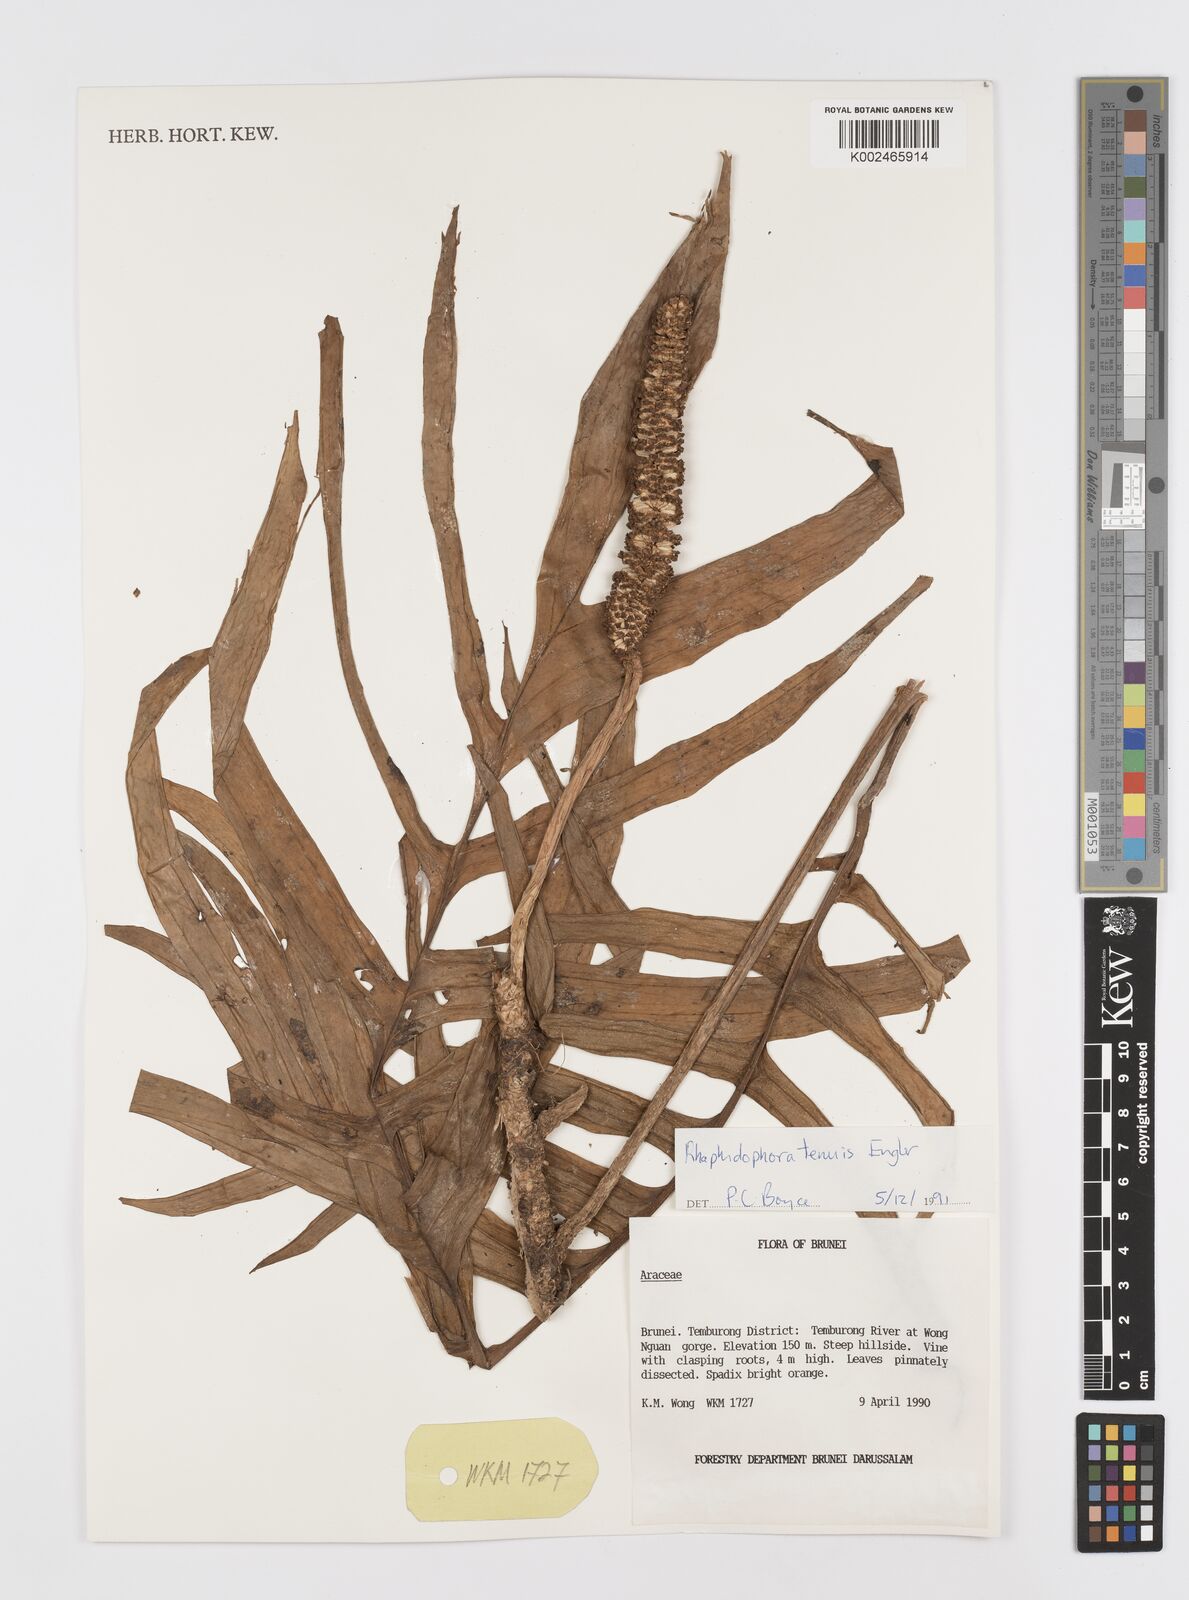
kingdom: Plantae
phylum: Tracheophyta
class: Liliopsida
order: Alismatales
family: Araceae
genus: Rhaphidophora
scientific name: Rhaphidophora korthalsii
